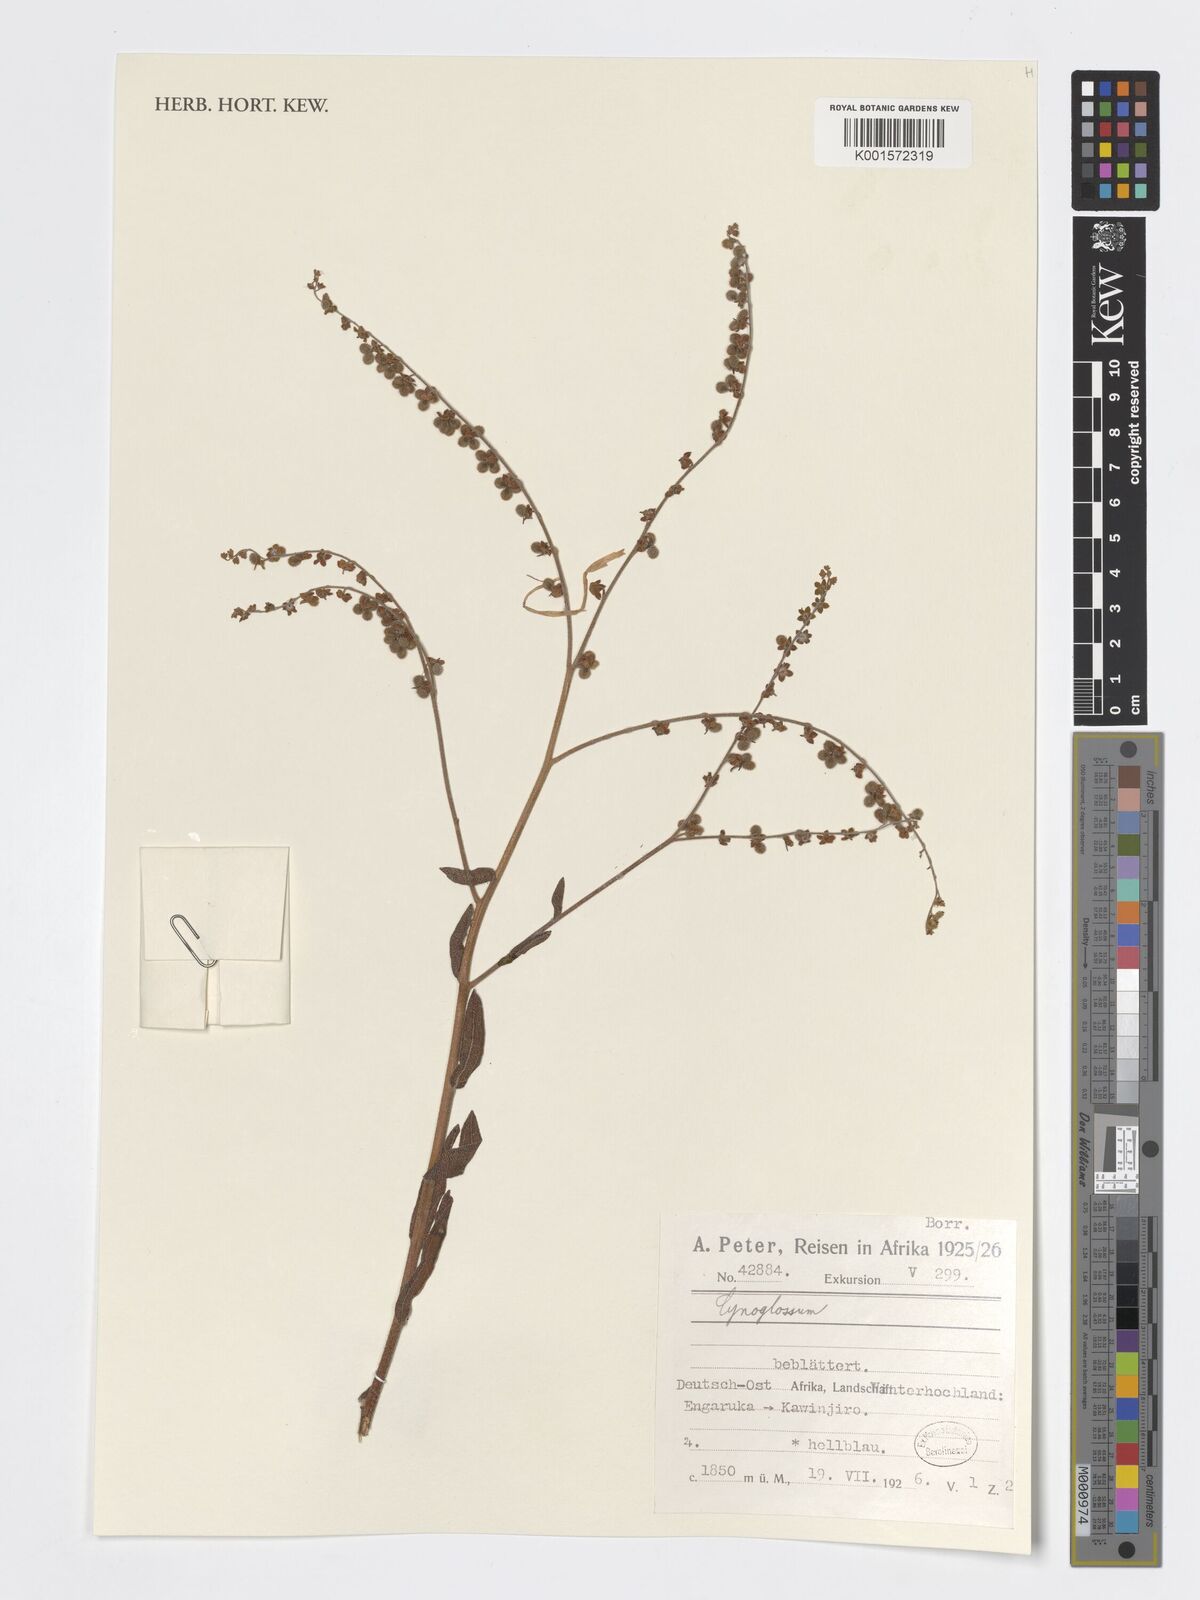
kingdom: Plantae
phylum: Tracheophyta
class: Magnoliopsida
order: Boraginales
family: Boraginaceae
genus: Cynoglossum
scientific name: Cynoglossum
